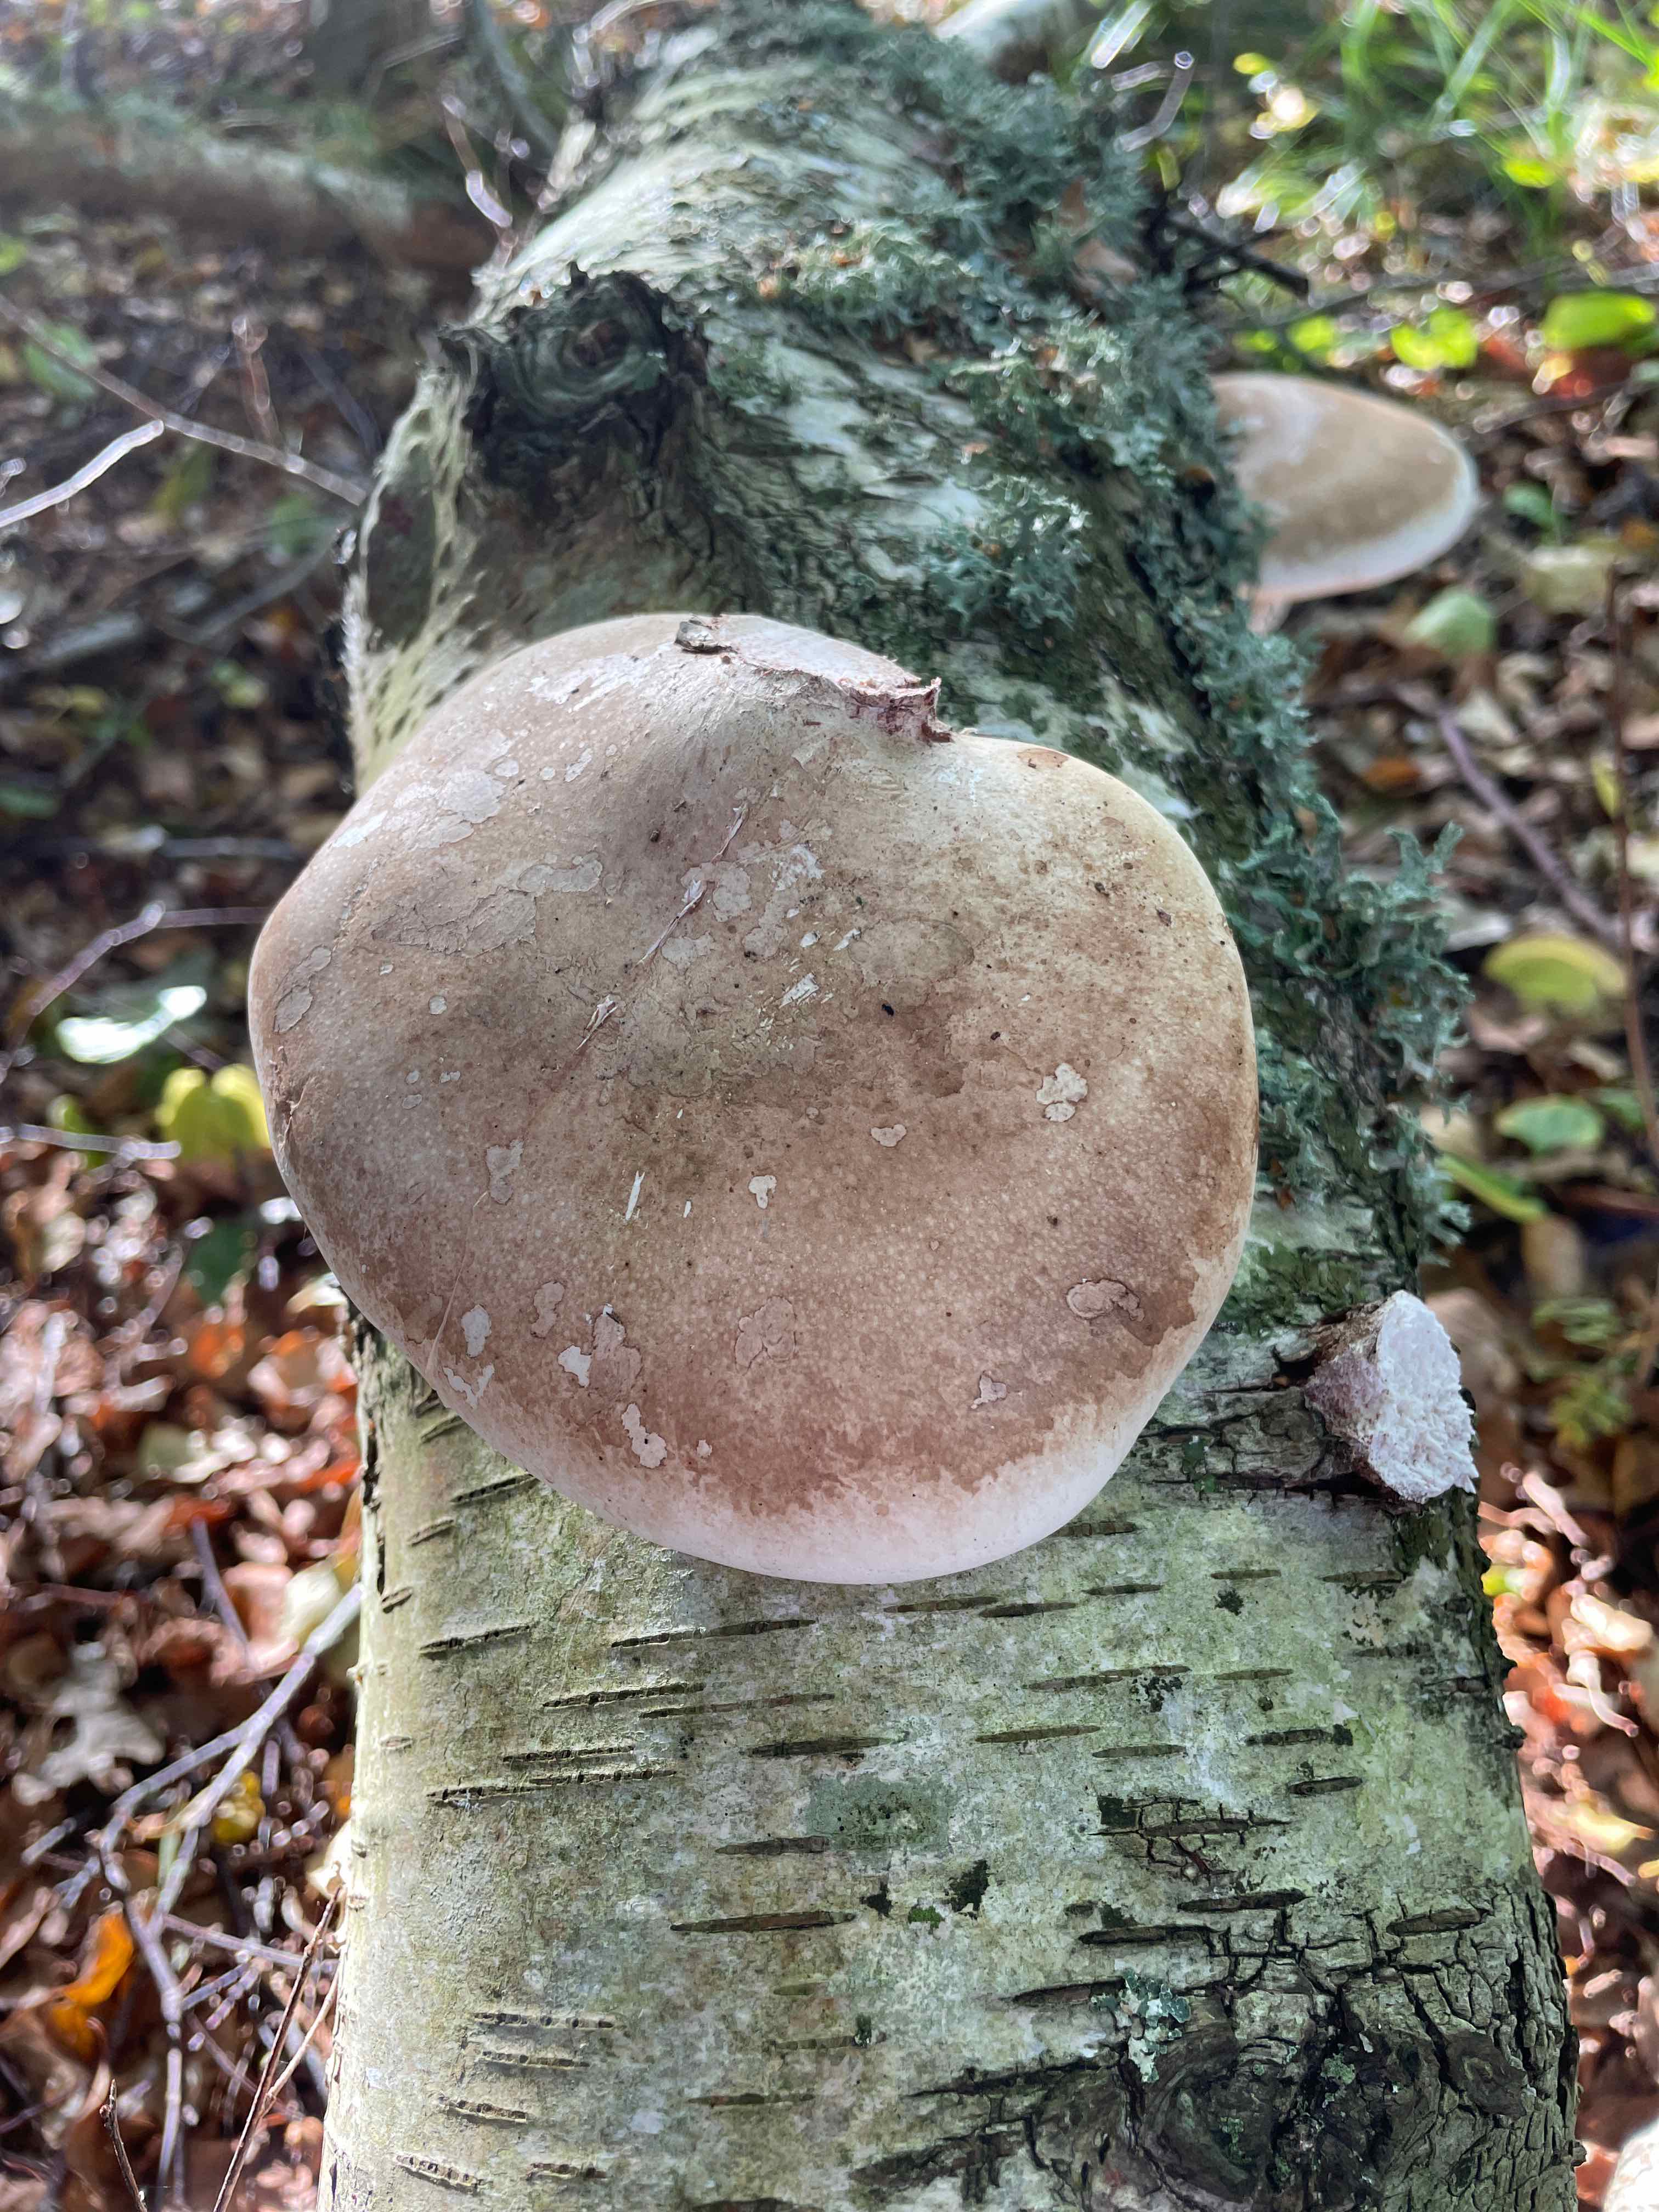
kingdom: Fungi
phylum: Basidiomycota
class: Agaricomycetes
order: Polyporales
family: Fomitopsidaceae
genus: Fomitopsis
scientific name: Fomitopsis betulina
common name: birkeporesvamp
